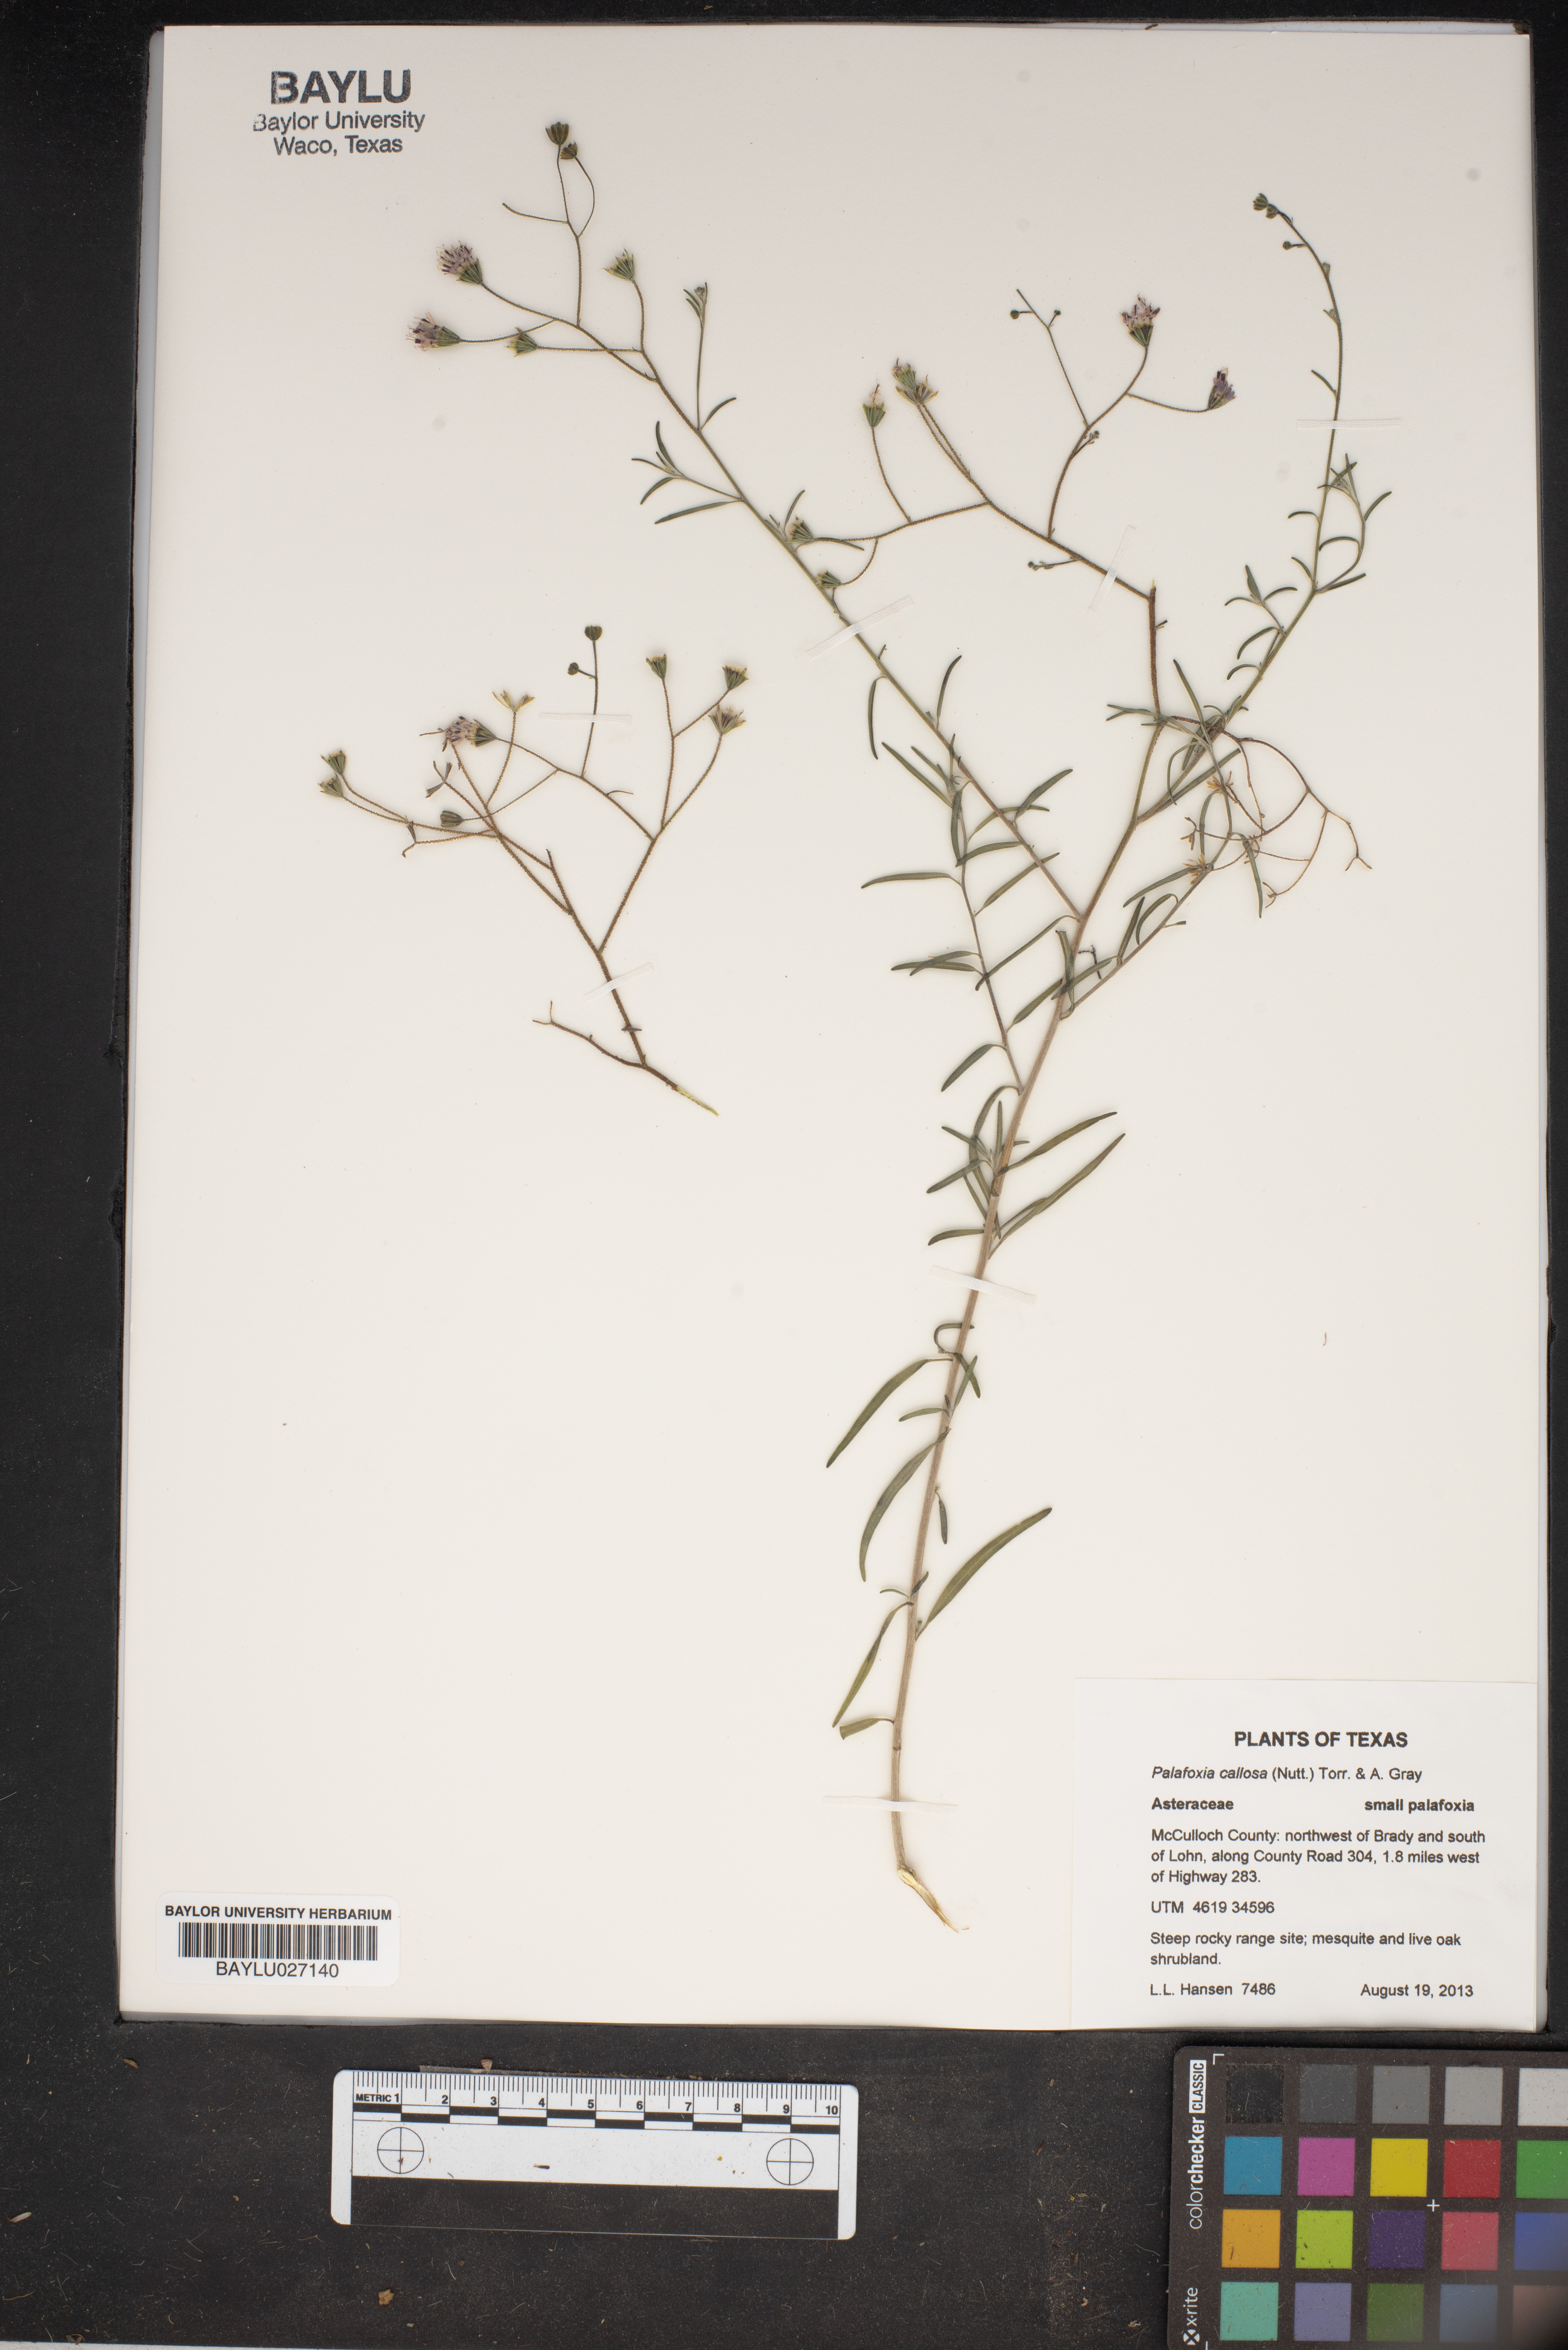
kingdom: Plantae
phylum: Tracheophyta
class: Magnoliopsida
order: Asterales
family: Asteraceae
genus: Palafoxia
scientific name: Palafoxia callosa
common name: Small palafox
